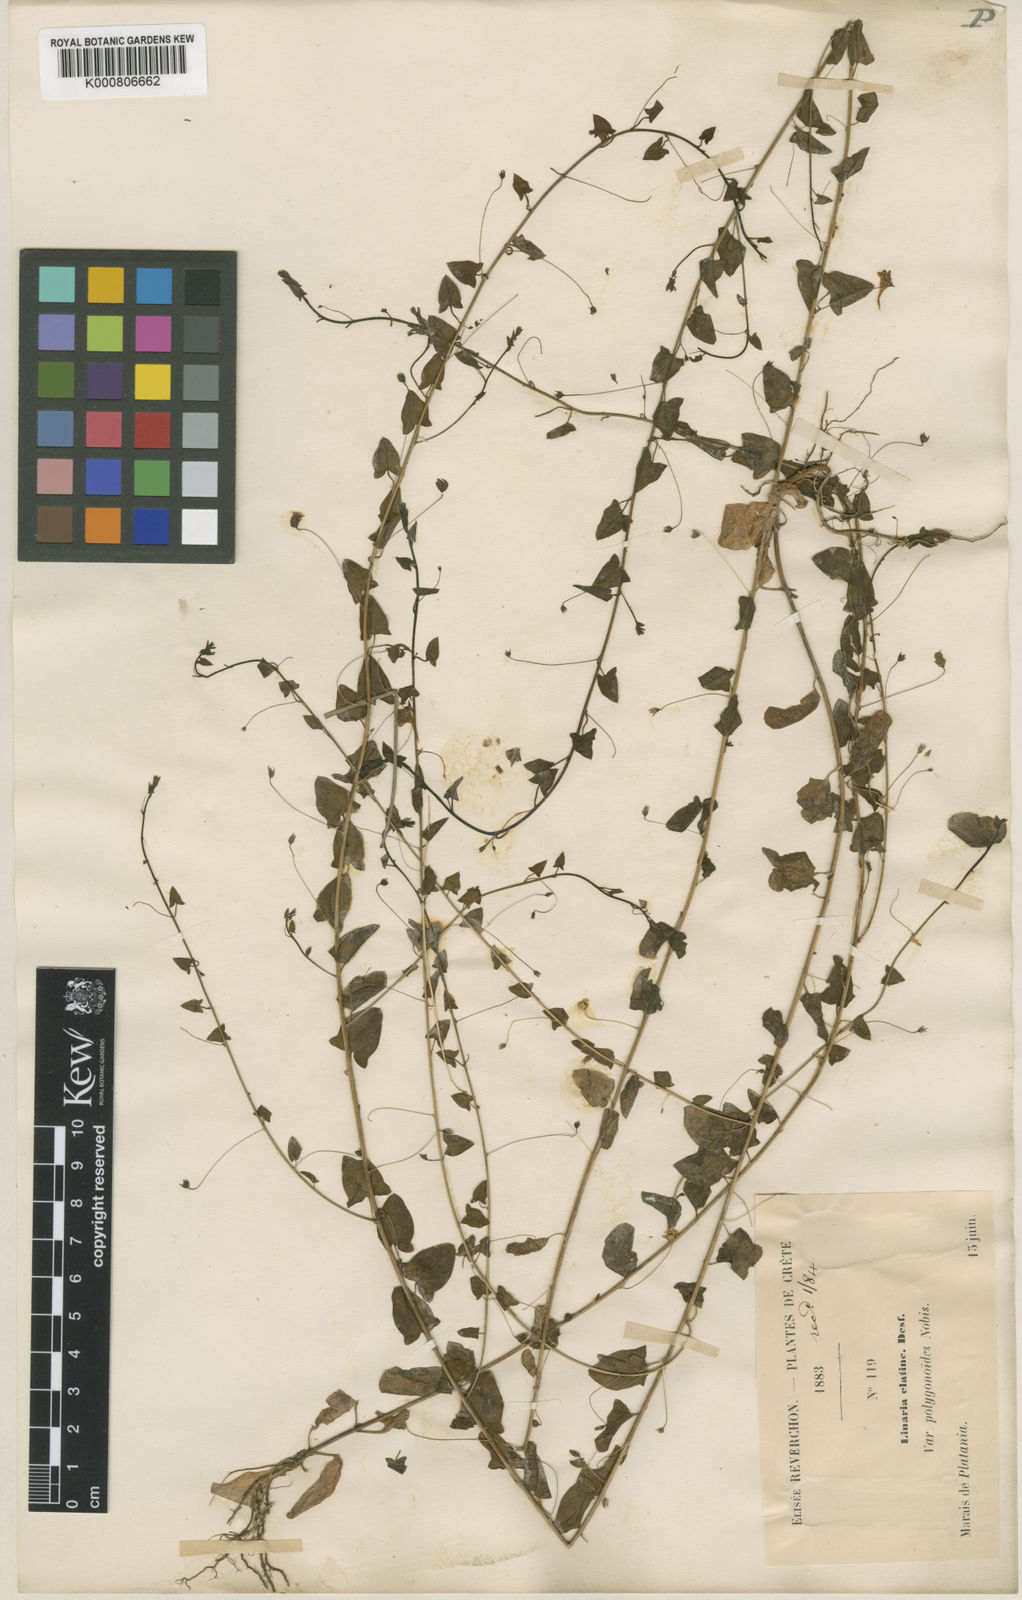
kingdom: Plantae
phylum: Tracheophyta
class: Magnoliopsida
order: Lamiales
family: Plantaginaceae
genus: Chaenorhinum
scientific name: Chaenorhinum
